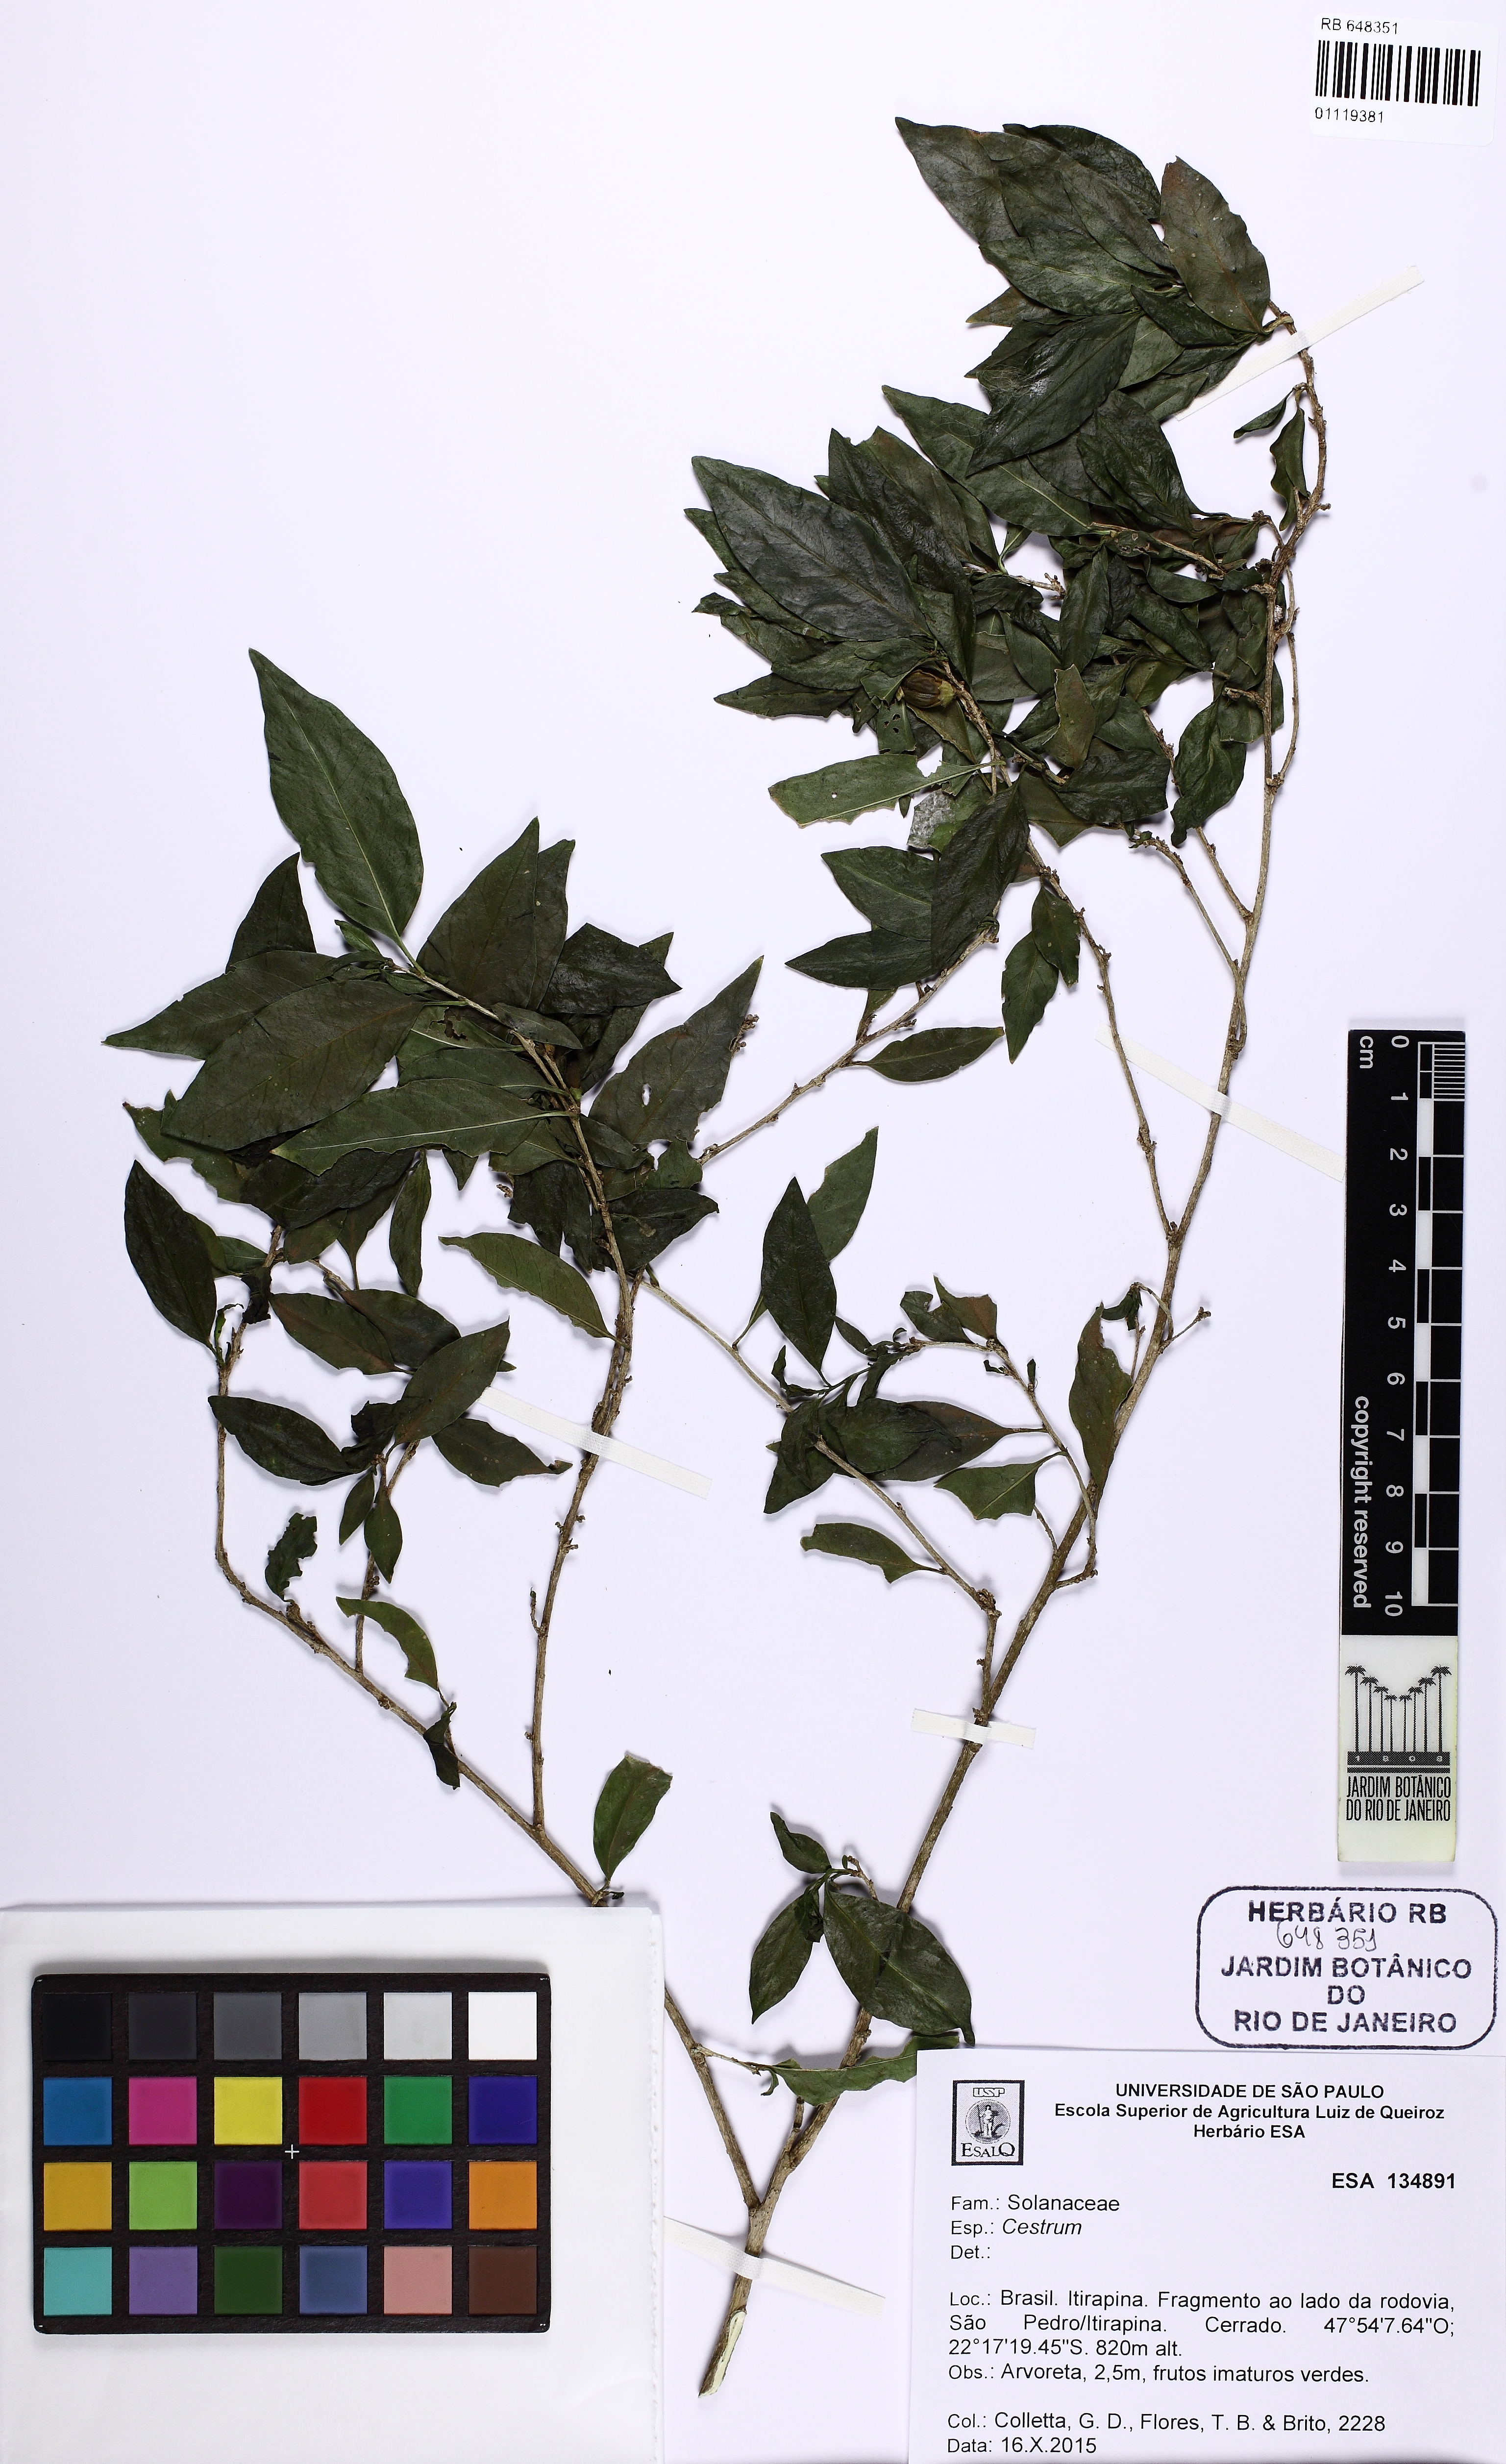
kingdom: Plantae
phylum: Tracheophyta
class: Magnoliopsida
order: Solanales
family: Solanaceae
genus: Cestrum
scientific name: Cestrum
